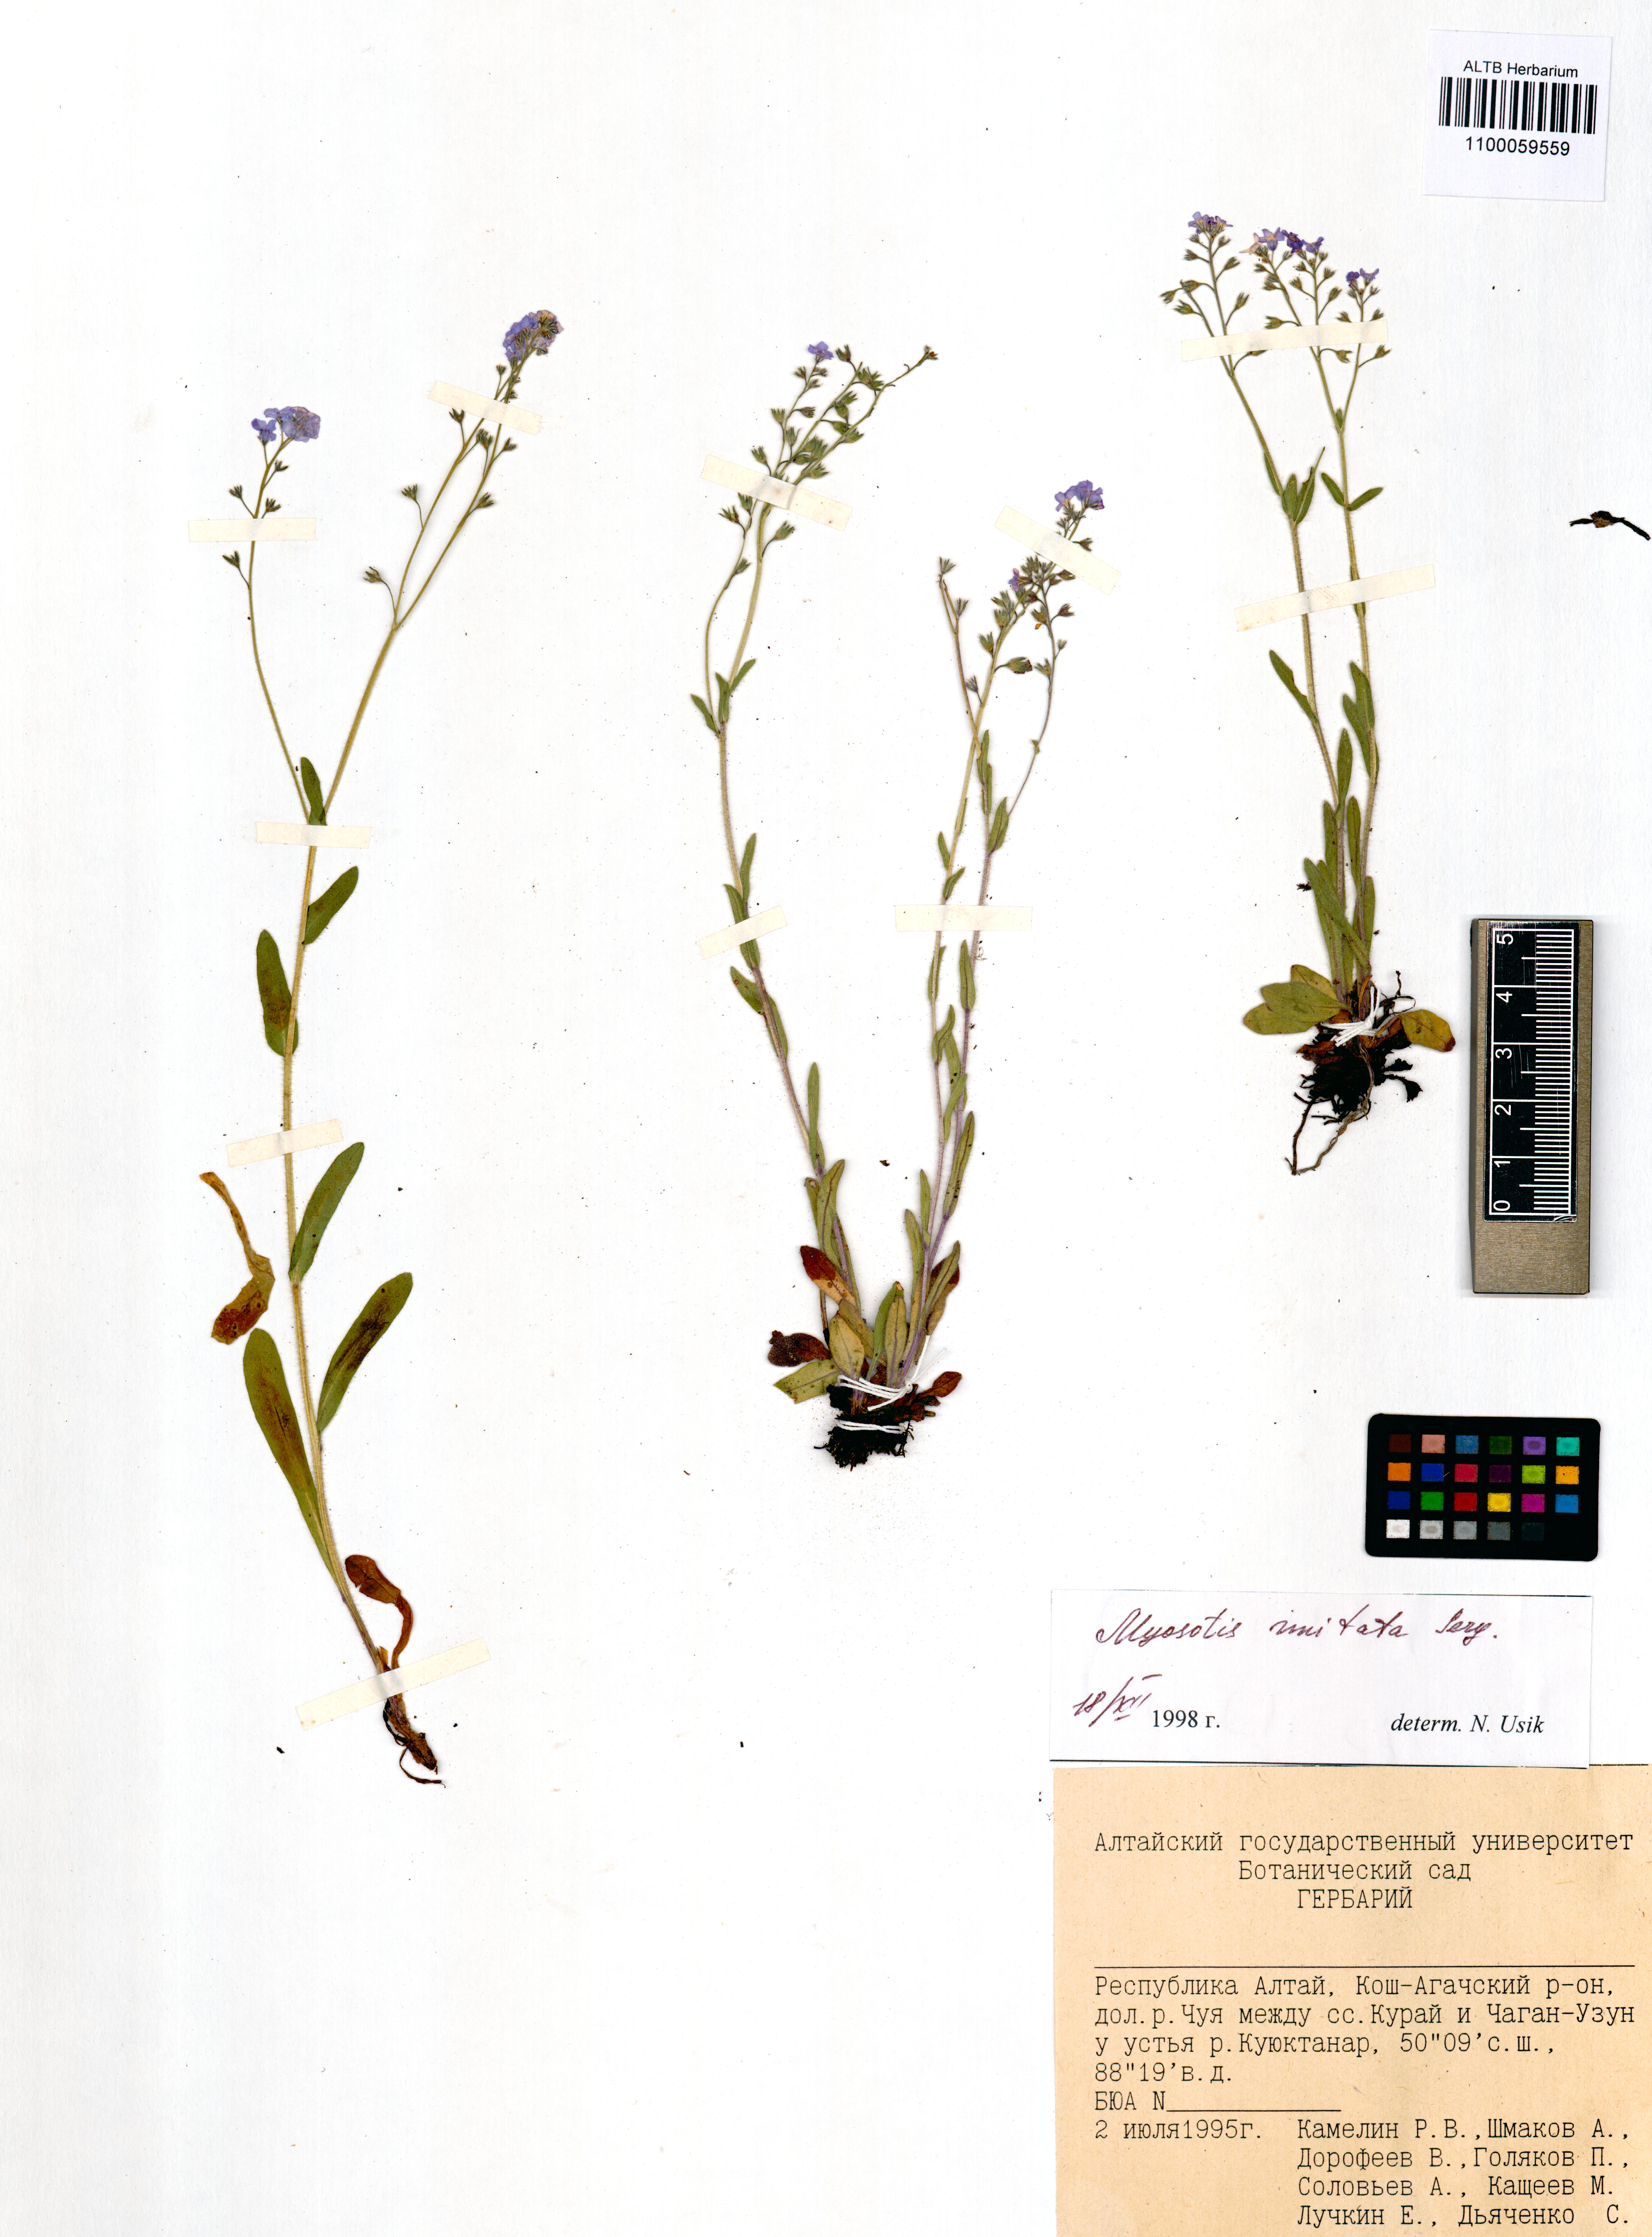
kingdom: Plantae
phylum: Tracheophyta
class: Magnoliopsida
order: Boraginales
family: Boraginaceae
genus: Myosotis
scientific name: Myosotis imitata
